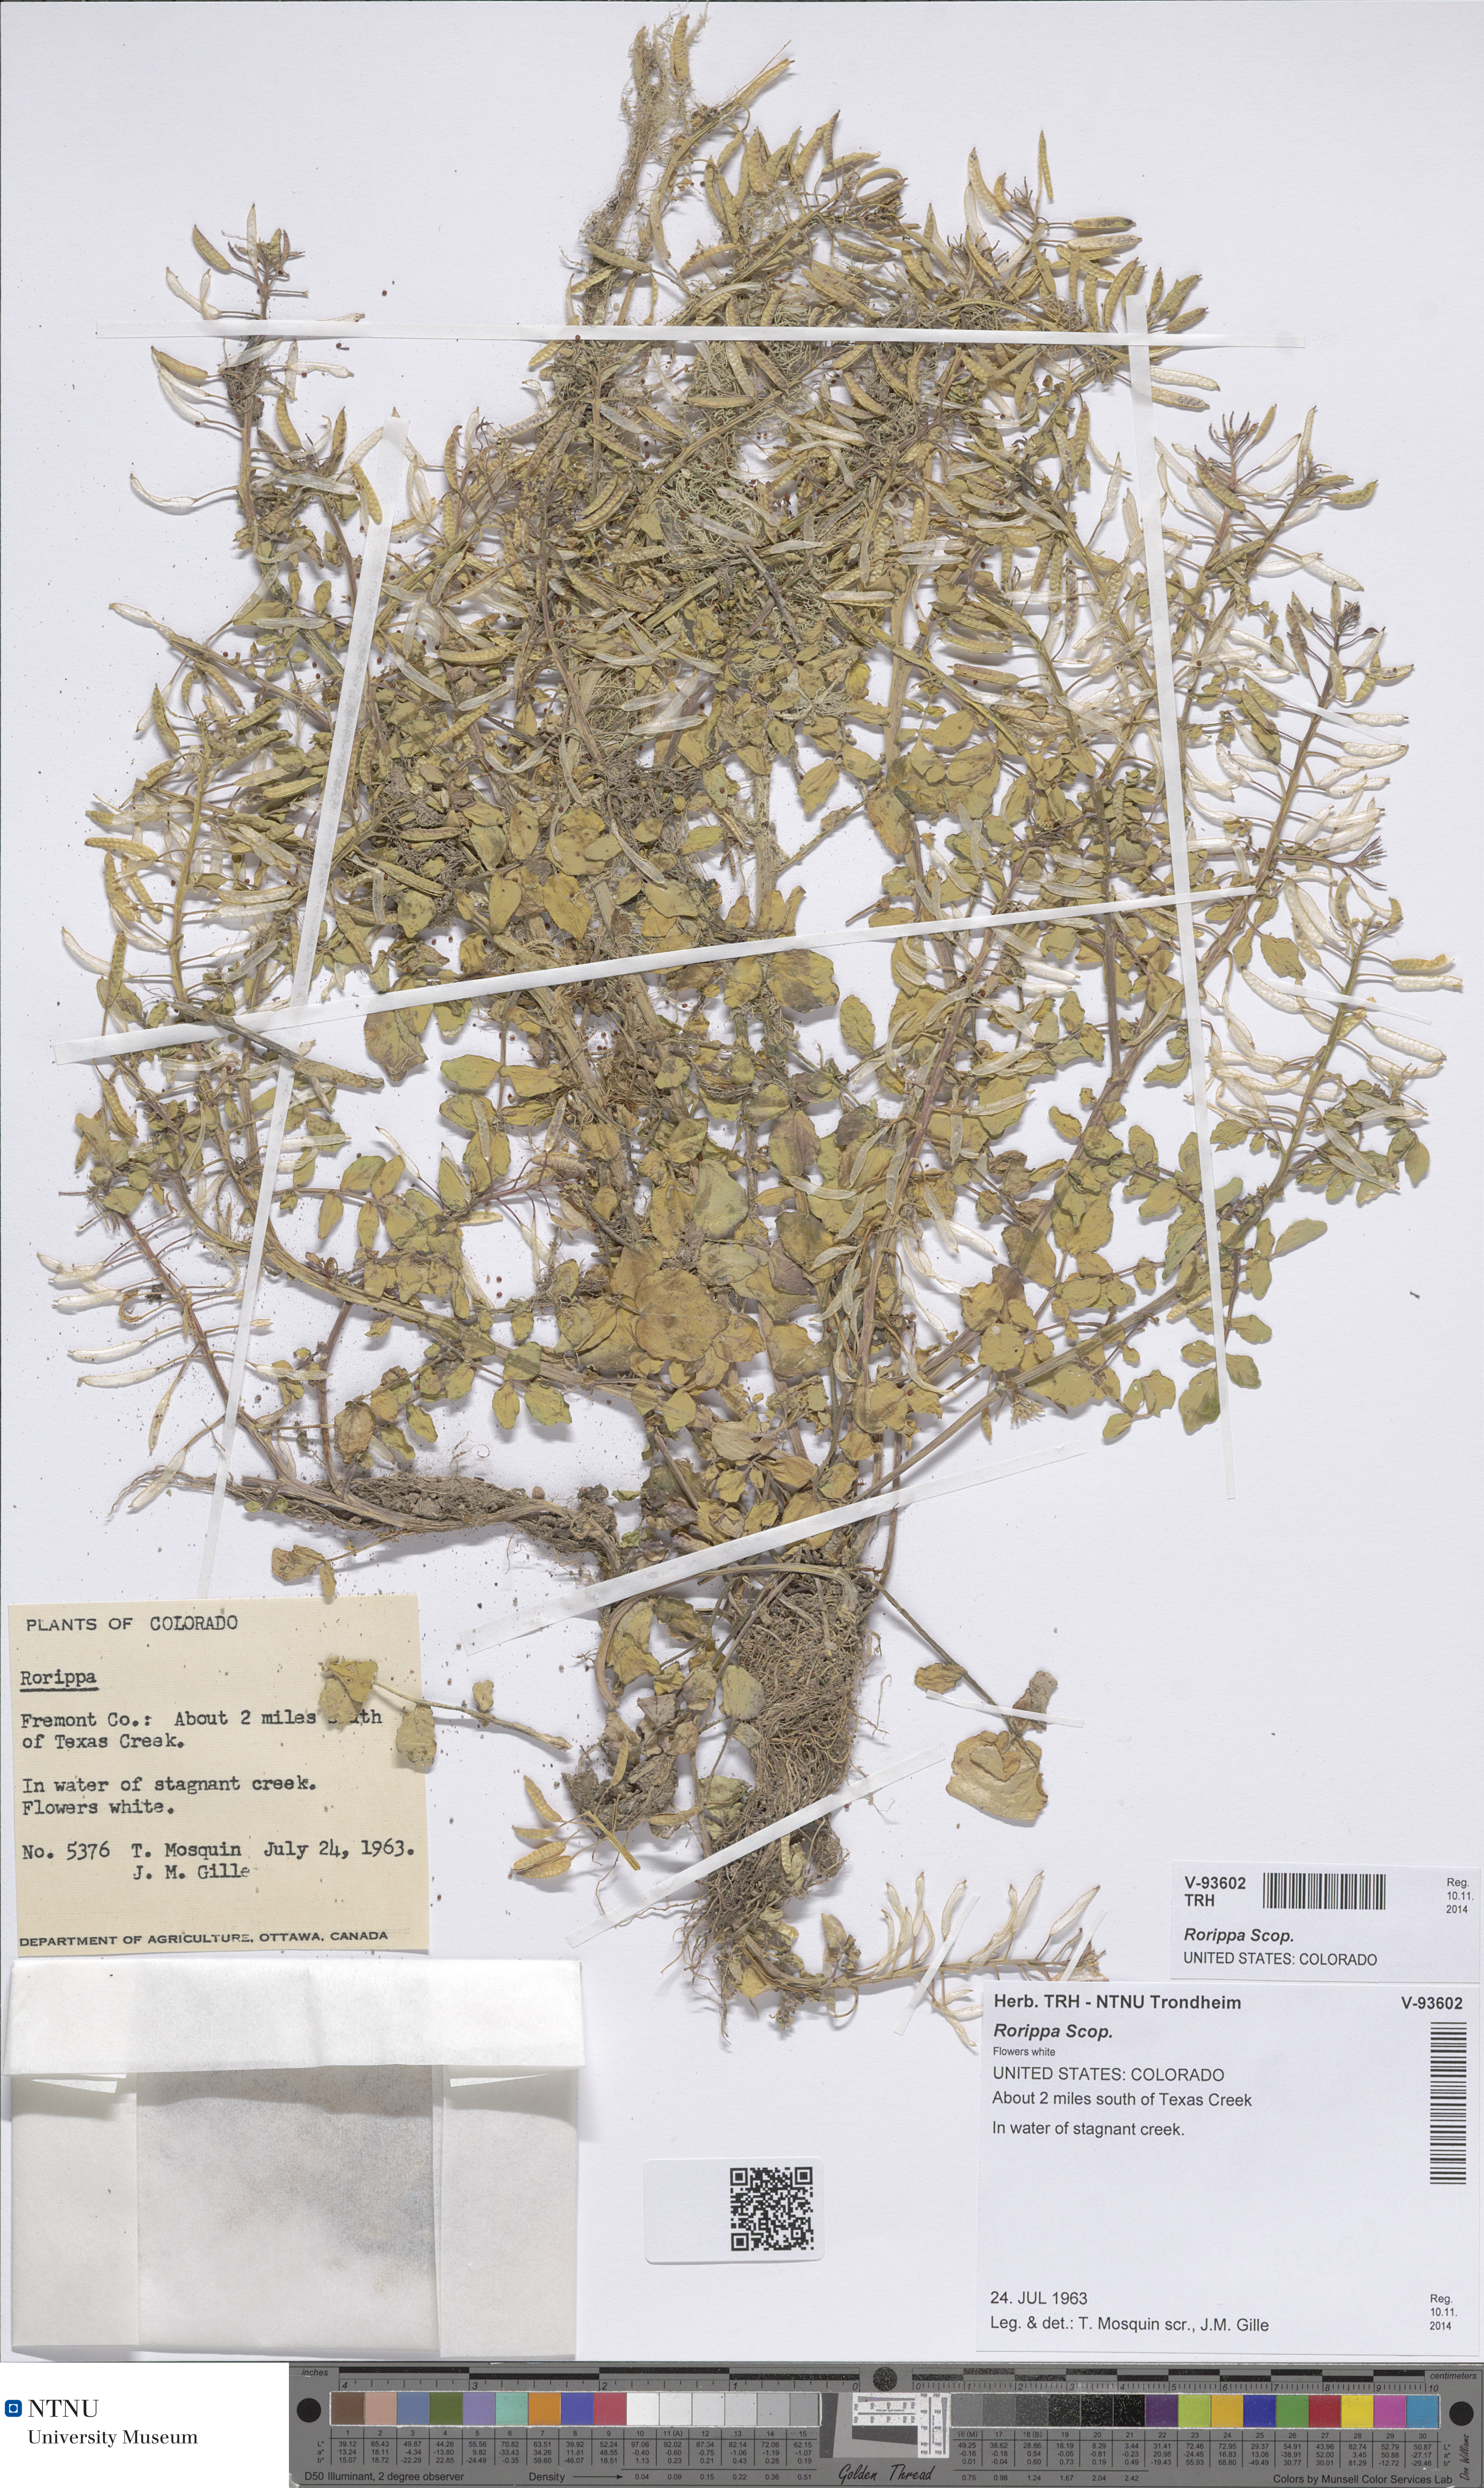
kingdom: Plantae
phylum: Tracheophyta
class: Magnoliopsida
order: Brassicales
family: Brassicaceae
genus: Rorippa
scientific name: Rorippa
